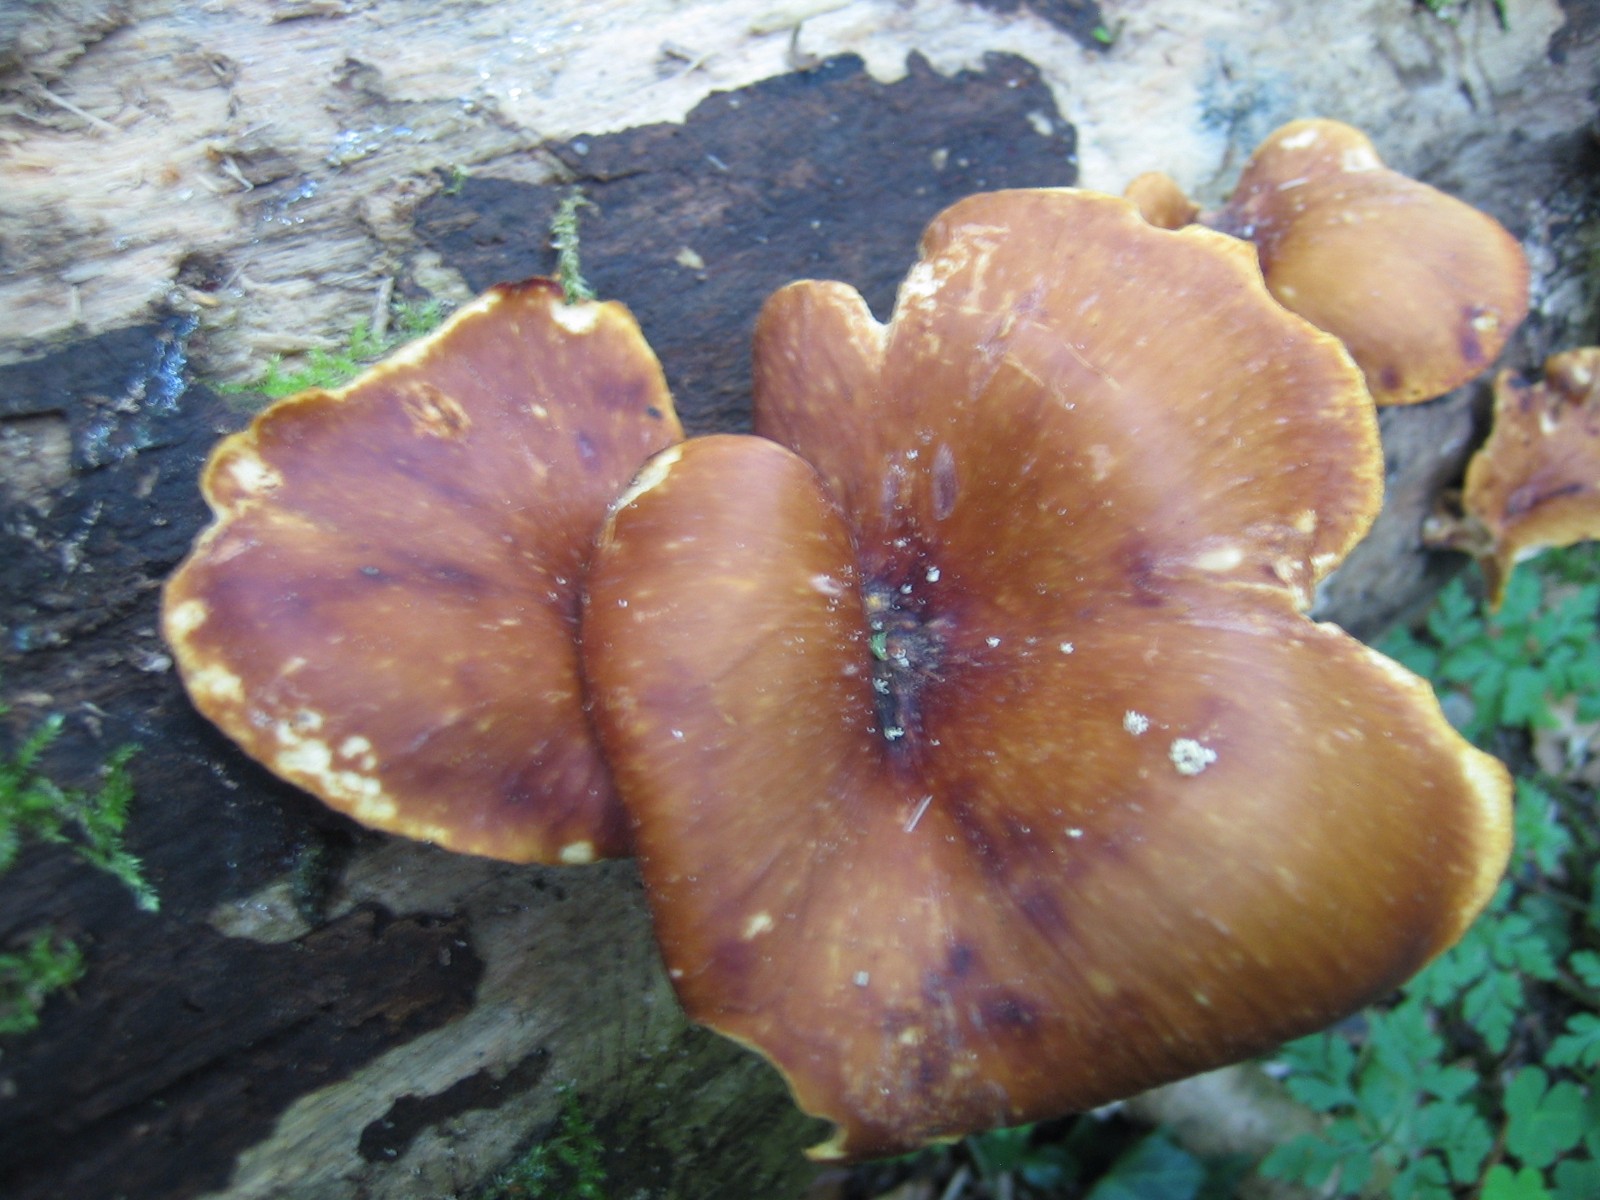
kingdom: Fungi
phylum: Basidiomycota
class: Agaricomycetes
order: Polyporales
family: Polyporaceae
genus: Cerioporus
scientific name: Cerioporus varius
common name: foranderlig stilkporesvamp
